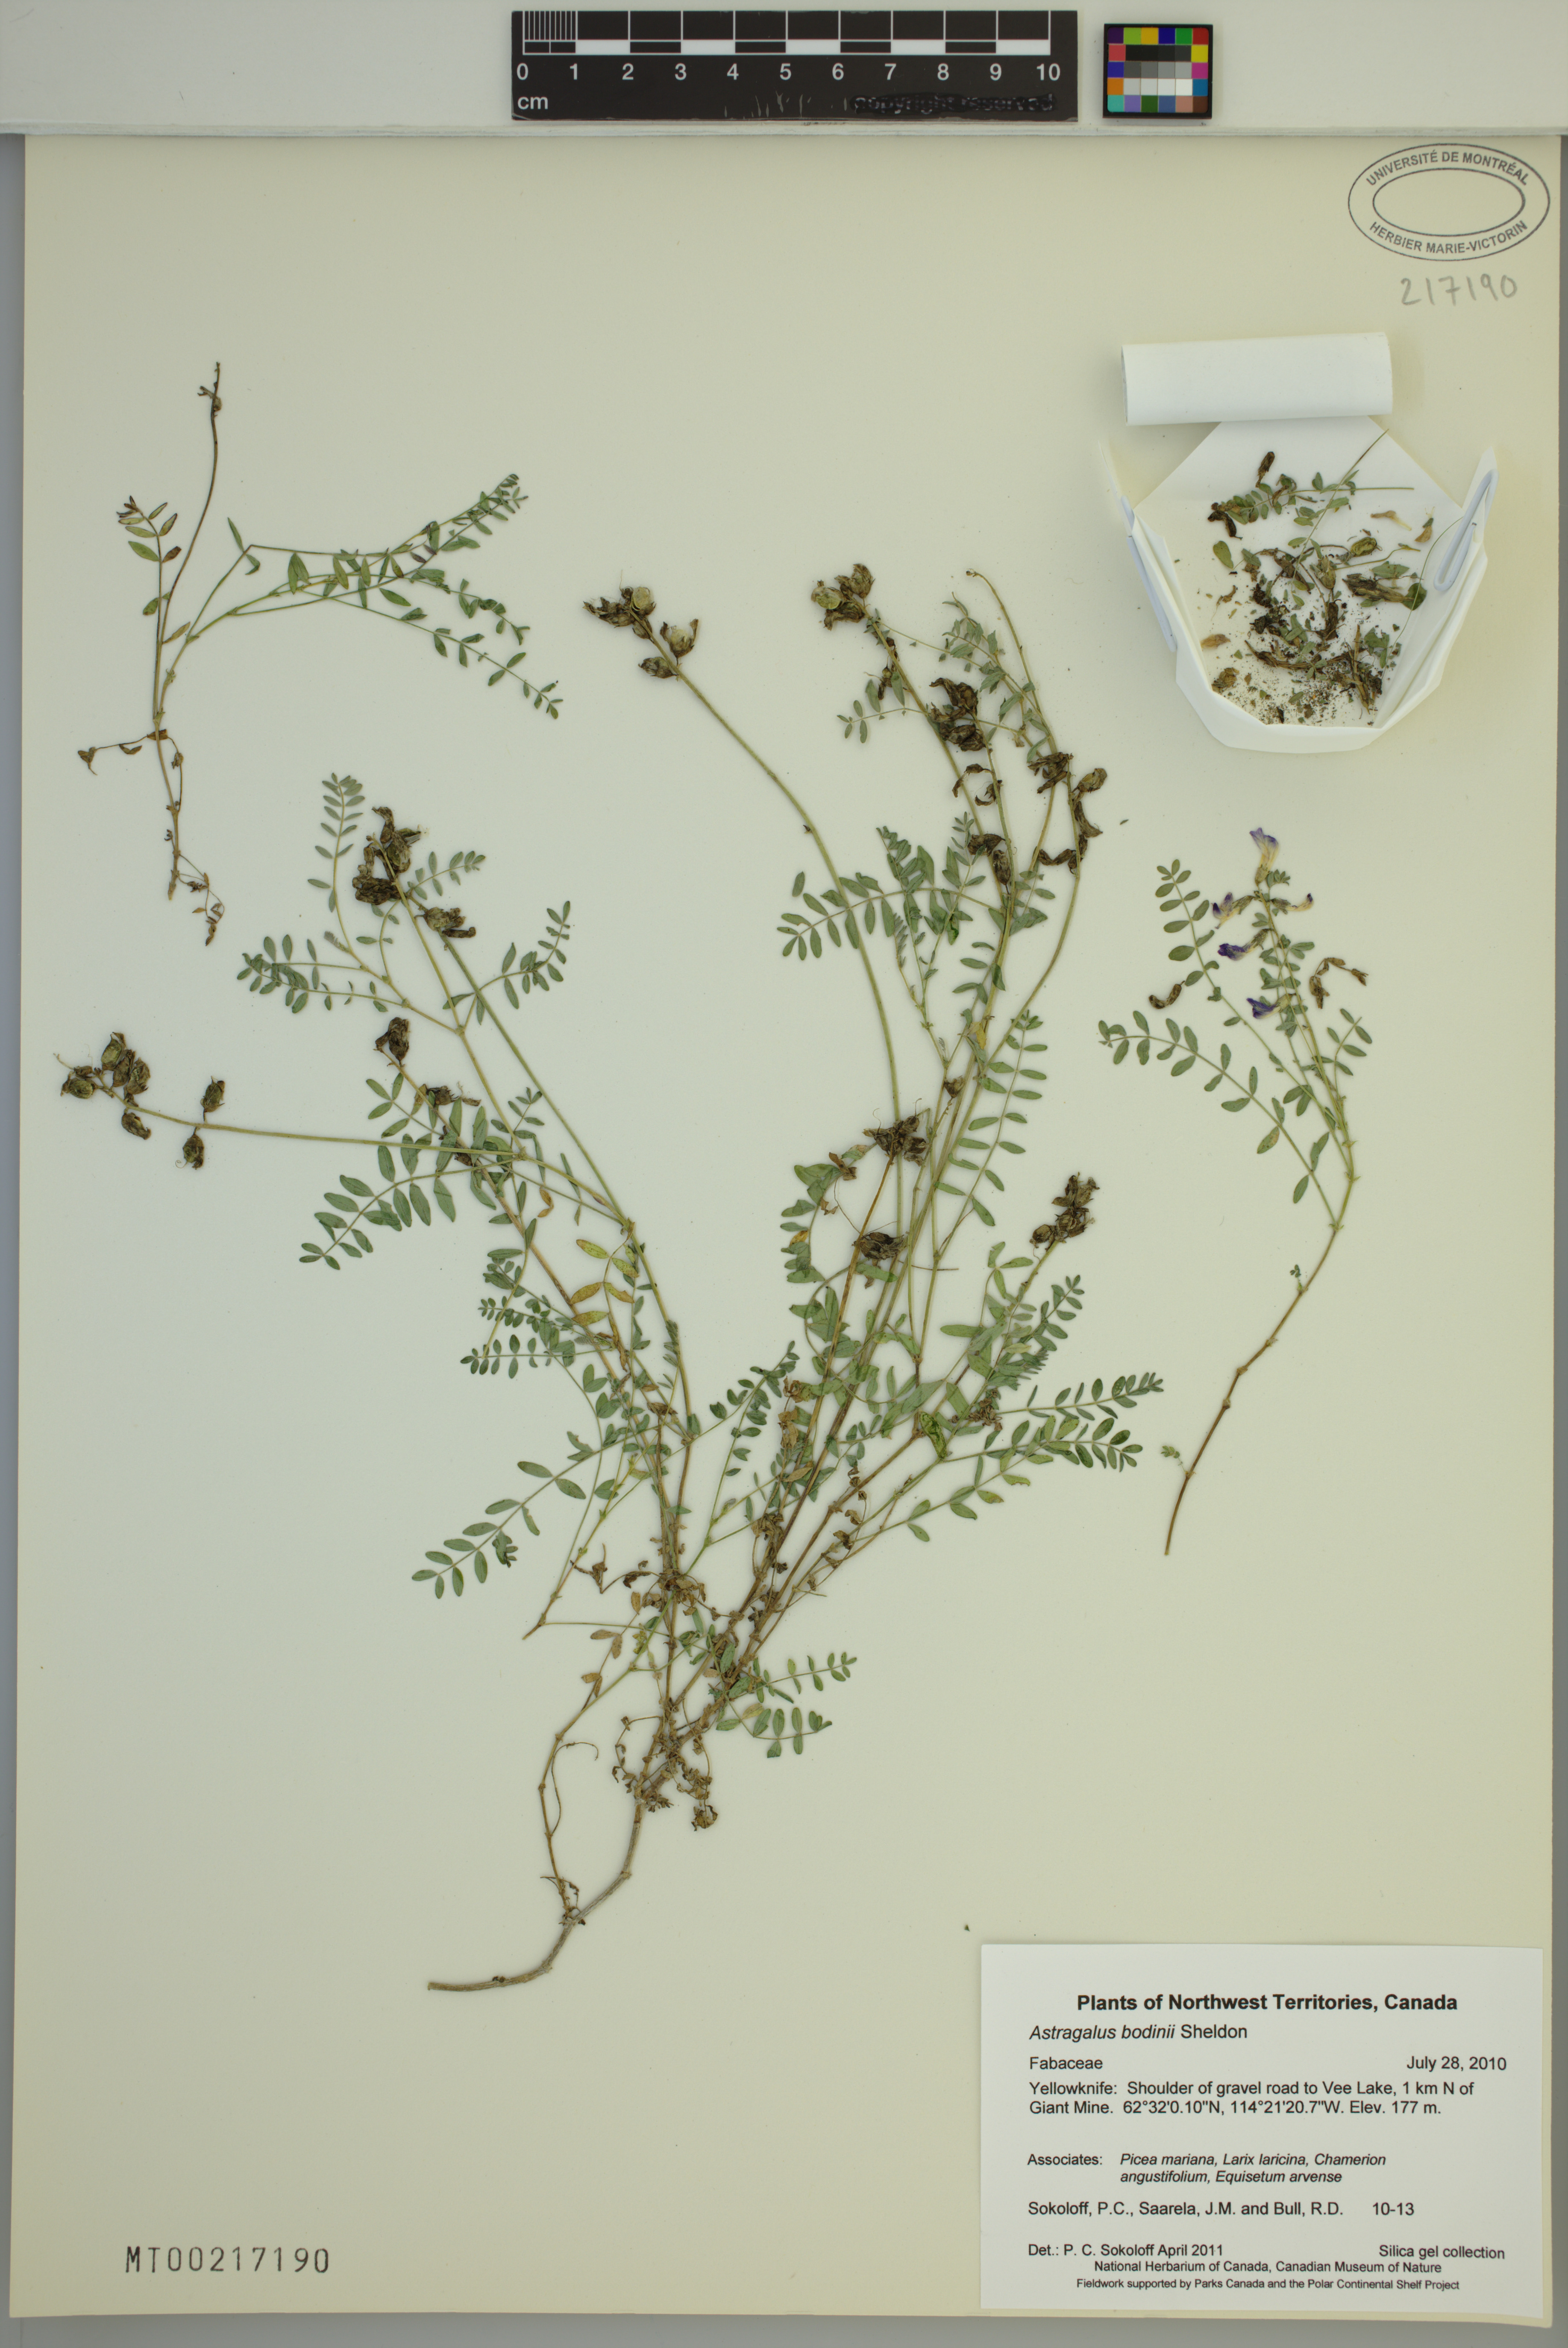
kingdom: Plantae
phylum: Tracheophyta
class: Magnoliopsida
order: Fabales
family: Fabaceae
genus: Astragalus
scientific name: Astragalus bodinii
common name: Bodin's milk-vetch
